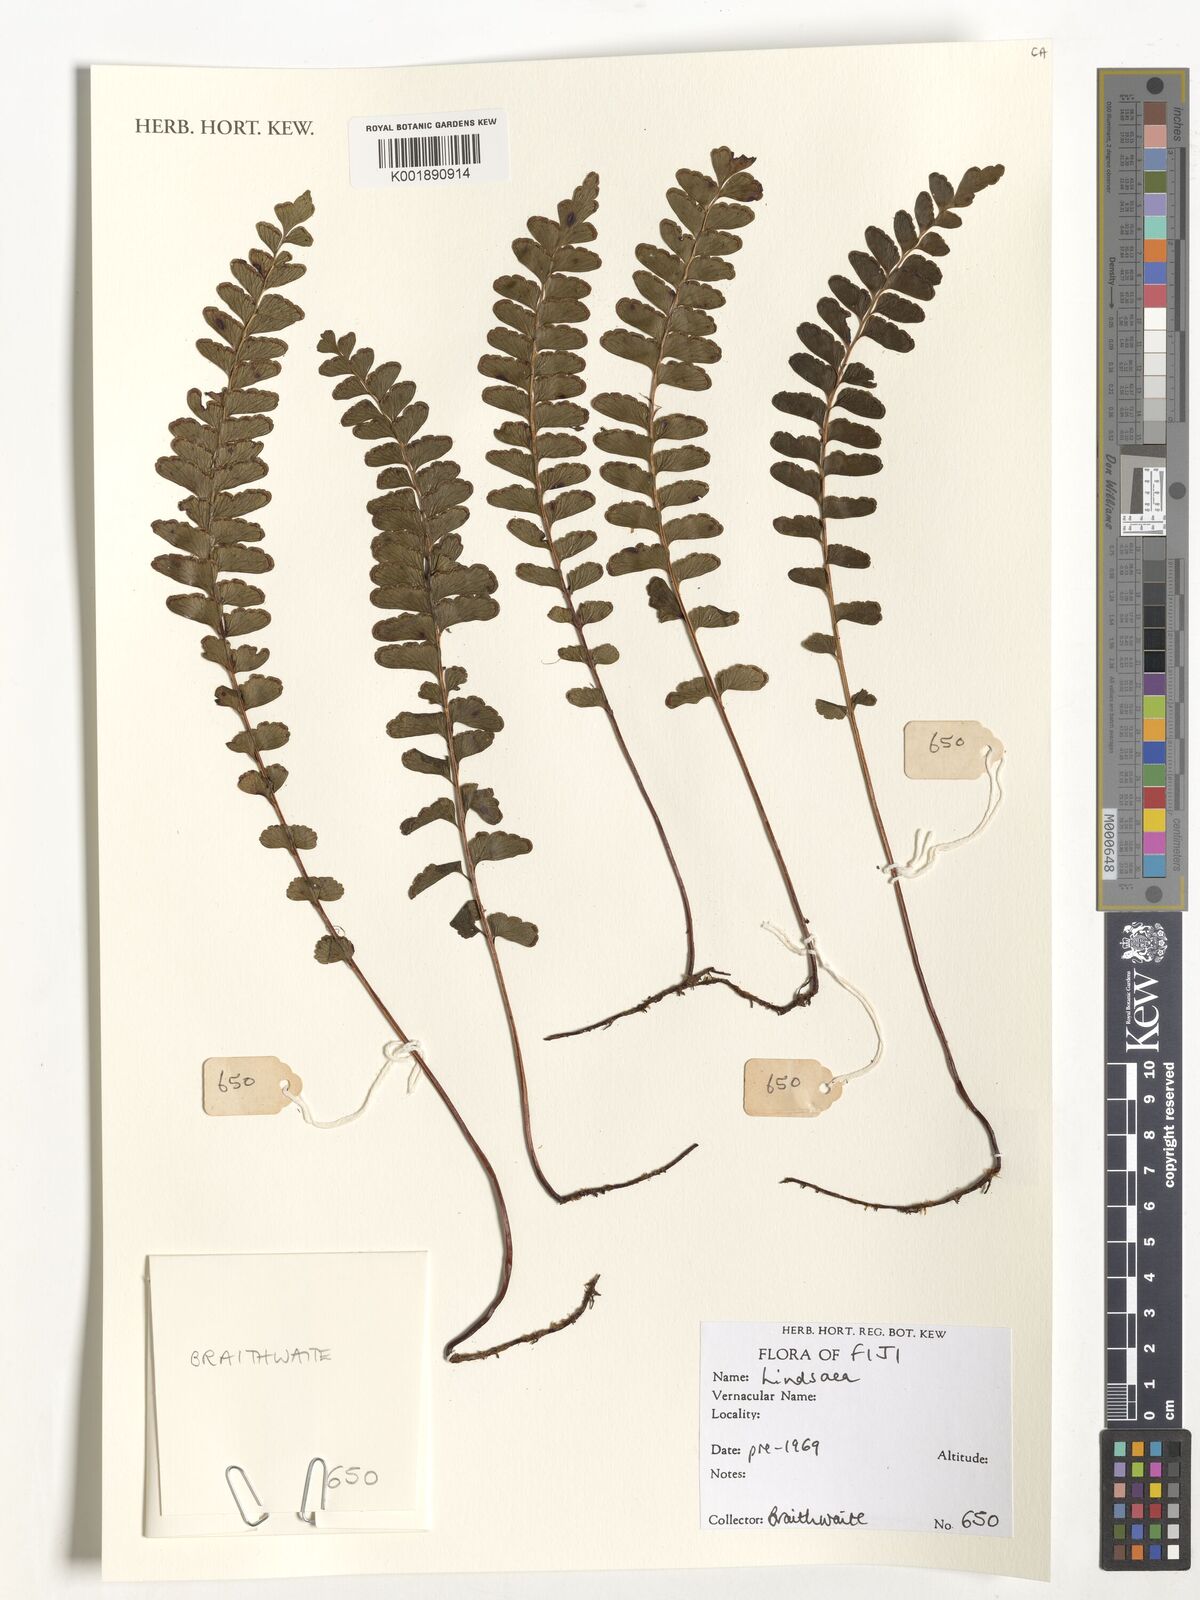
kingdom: Plantae
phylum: Tracheophyta
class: Polypodiopsida
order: Polypodiales
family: Lindsaeaceae
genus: Lindsaea
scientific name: Lindsaea
